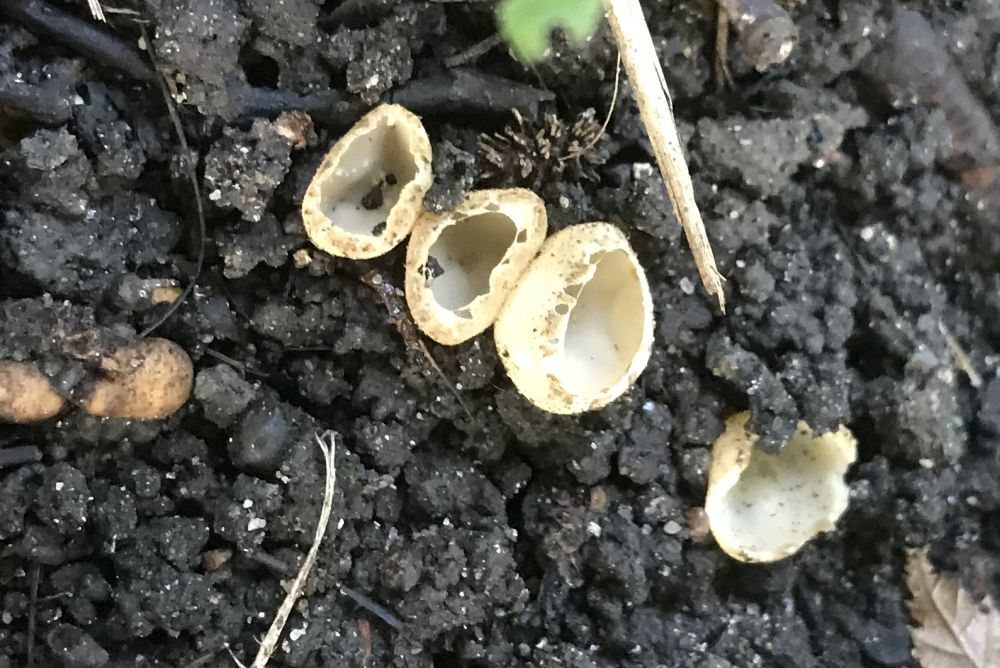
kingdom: Fungi
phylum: Ascomycota
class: Pezizomycetes
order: Pezizales
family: Pyronemataceae
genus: Tarzetta
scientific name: Tarzetta cupularis
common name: gulbrun pokalbæger
